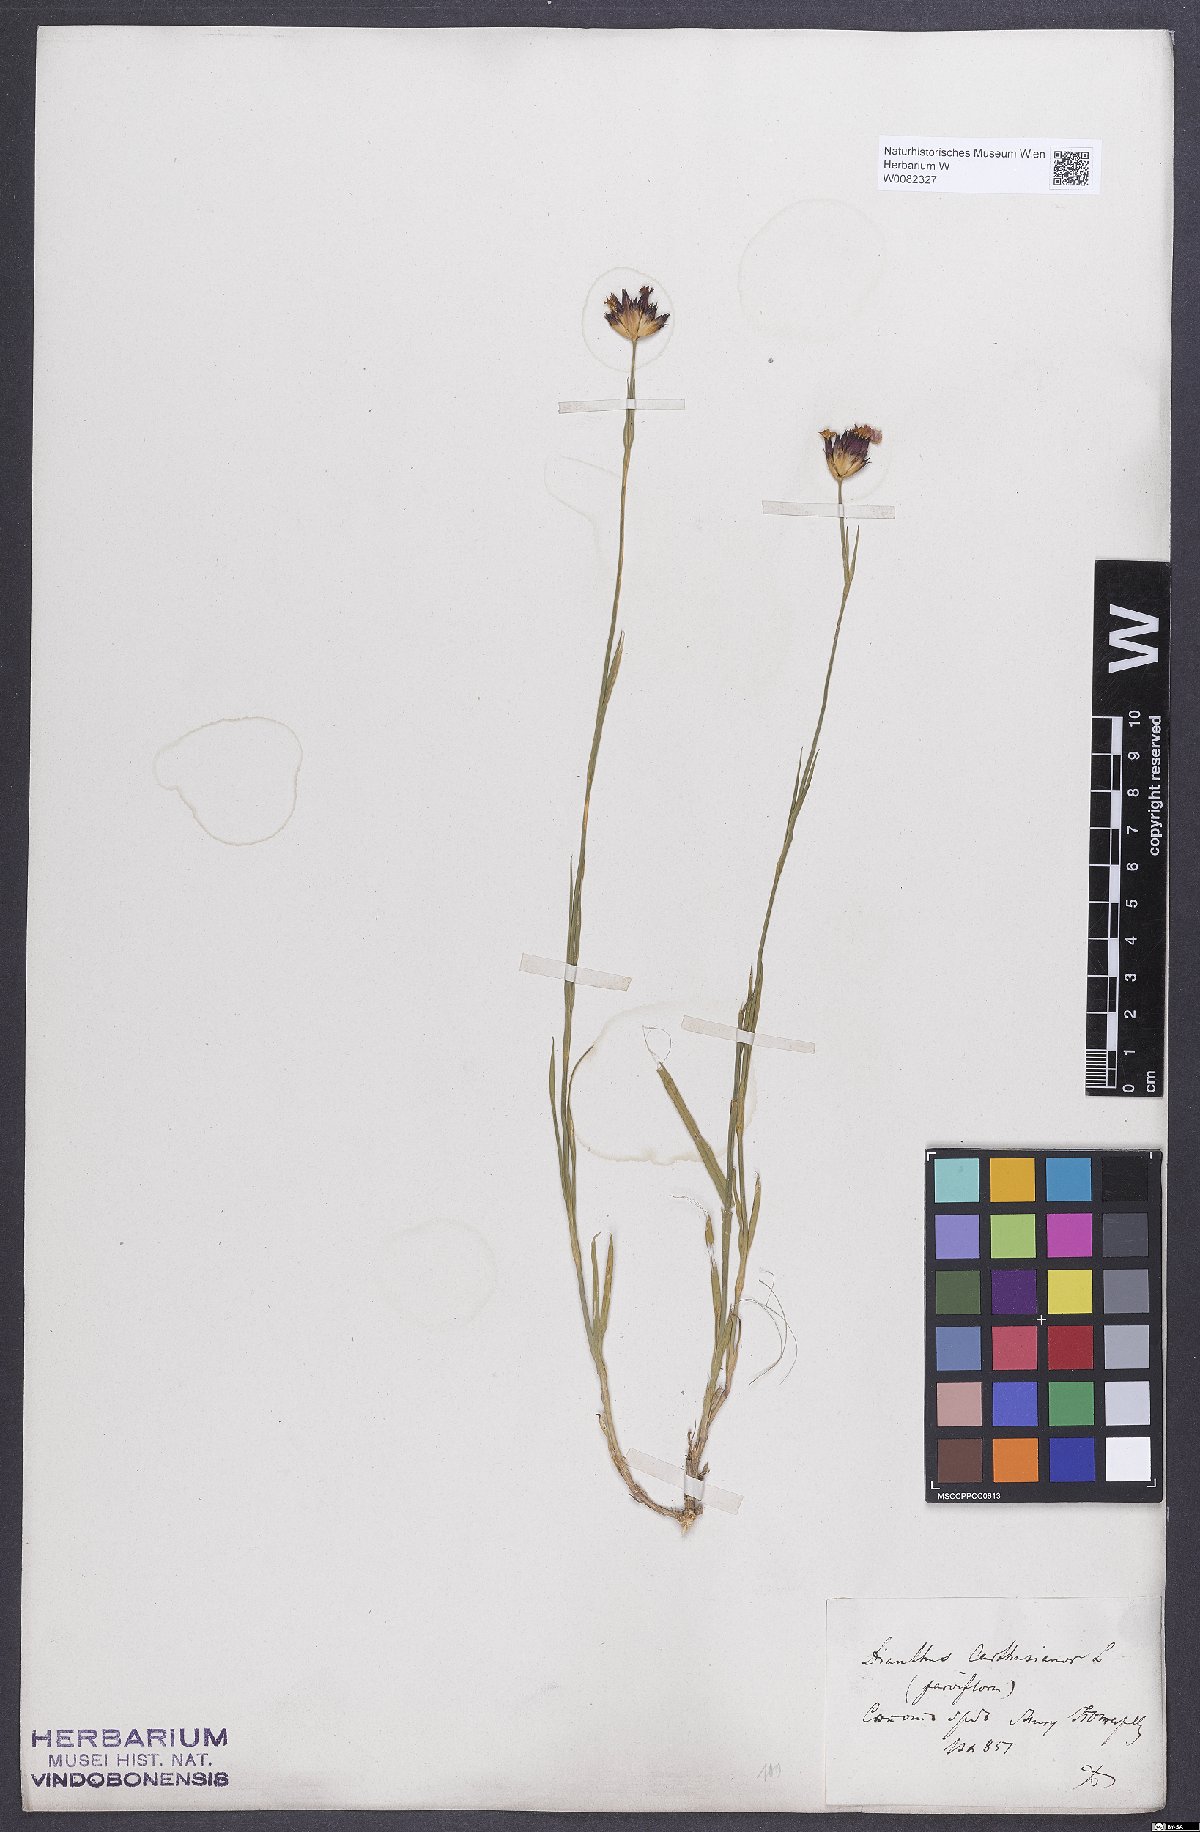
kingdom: Plantae
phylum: Tracheophyta
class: Magnoliopsida
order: Caryophyllales
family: Caryophyllaceae
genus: Dianthus
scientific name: Dianthus carthusianorum
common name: Carthusian pink
